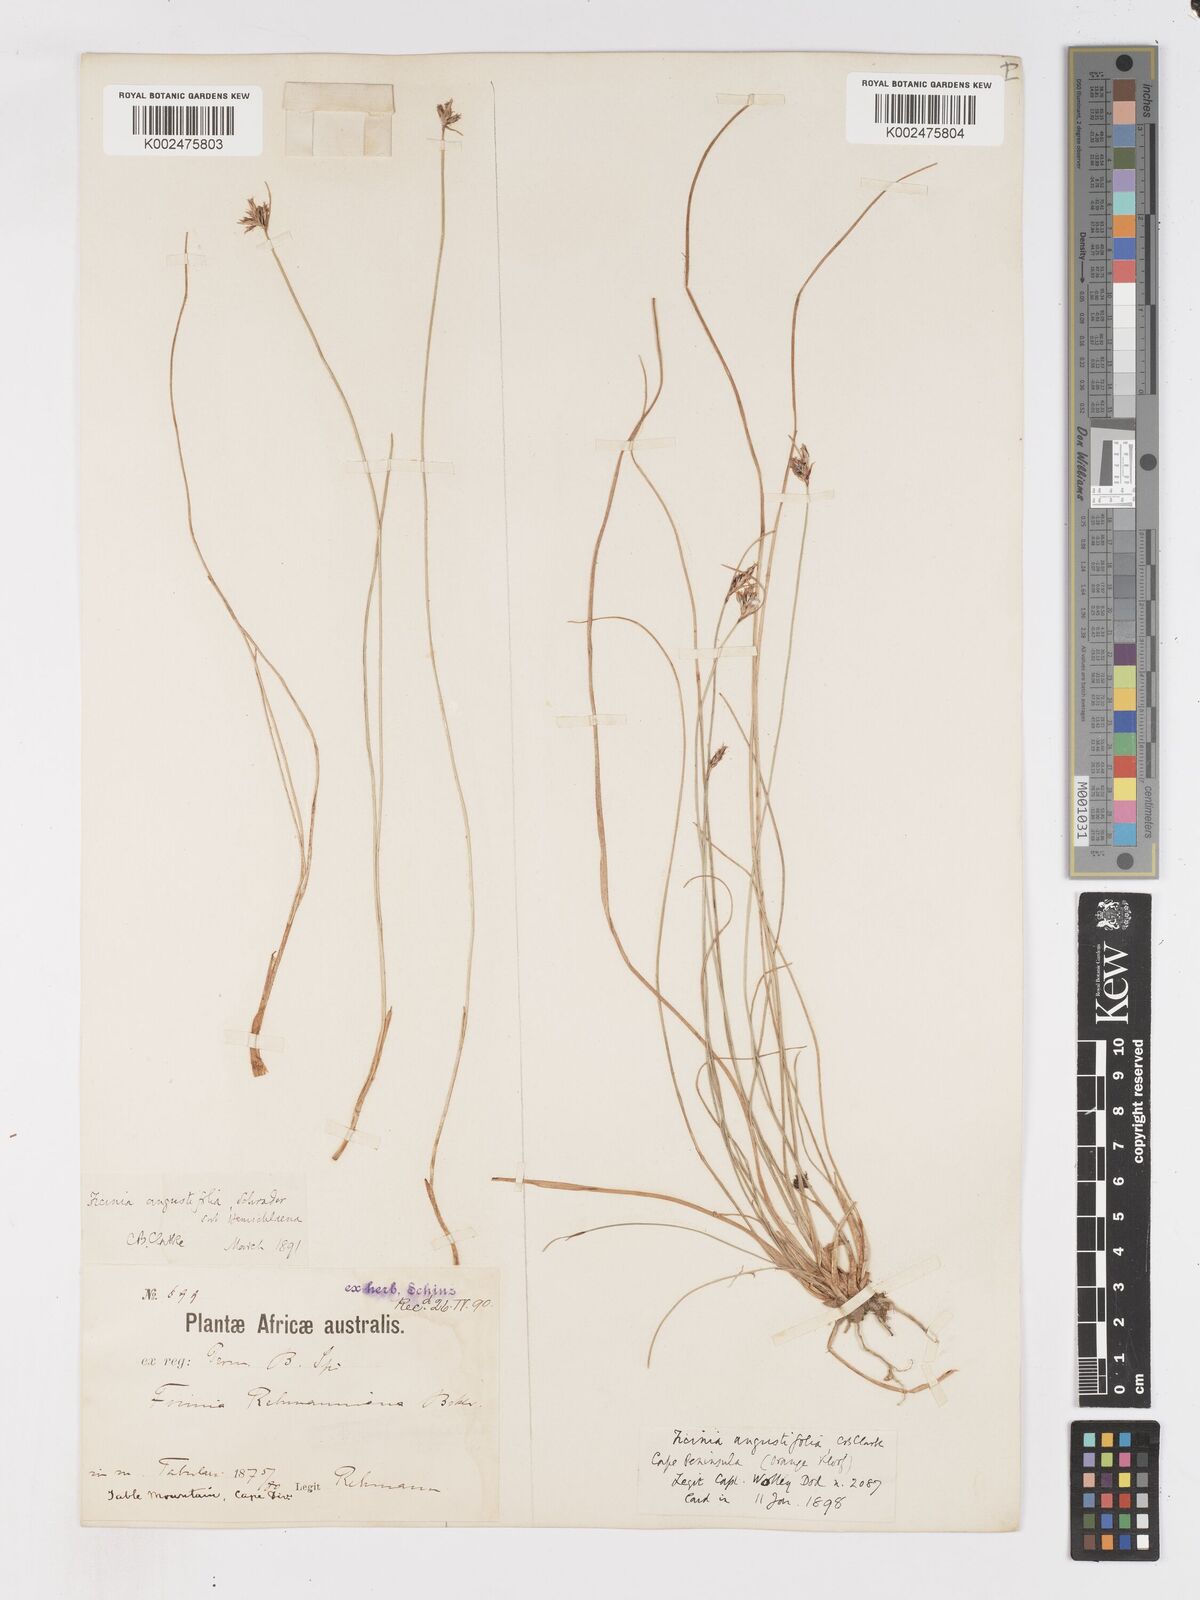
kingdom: Plantae
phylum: Tracheophyta
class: Liliopsida
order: Poales
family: Cyperaceae
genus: Ficinia
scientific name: Ficinia angustifolia
